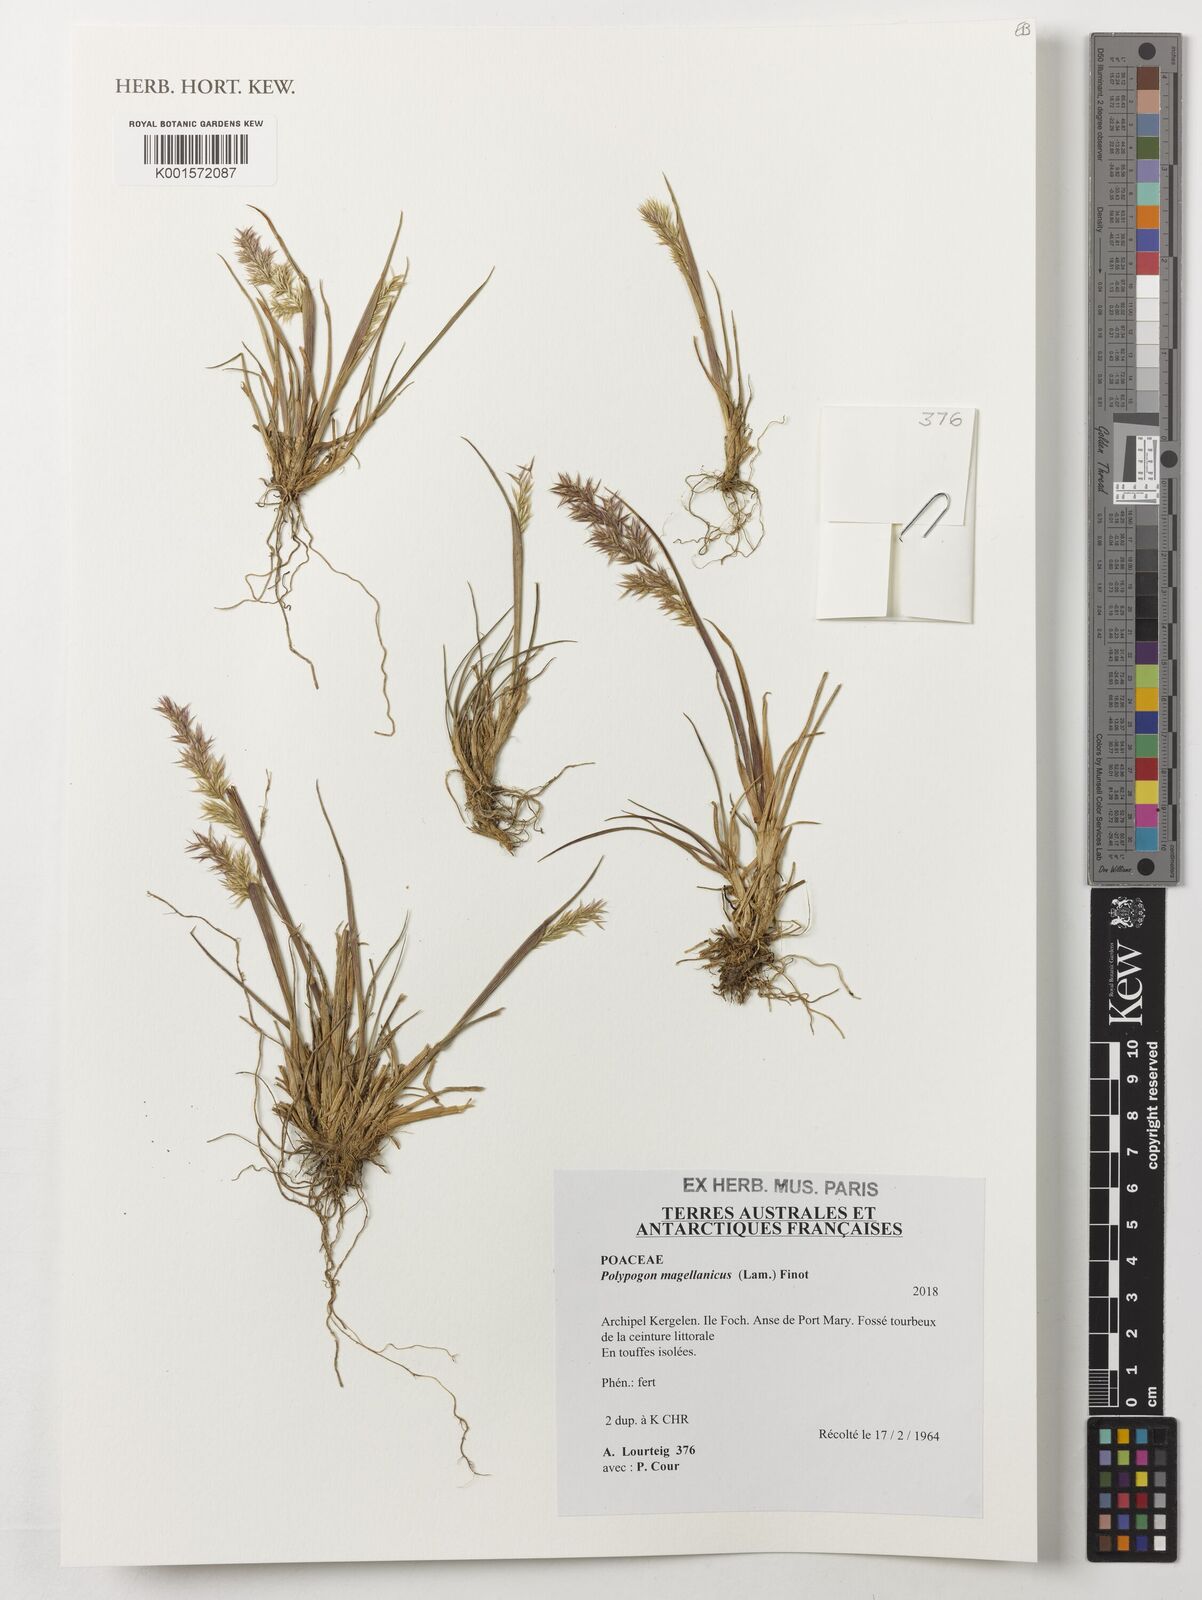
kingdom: Plantae
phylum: Tracheophyta
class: Liliopsida
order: Poales
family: Poaceae
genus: Polypogon
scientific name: Polypogon magellanicus
